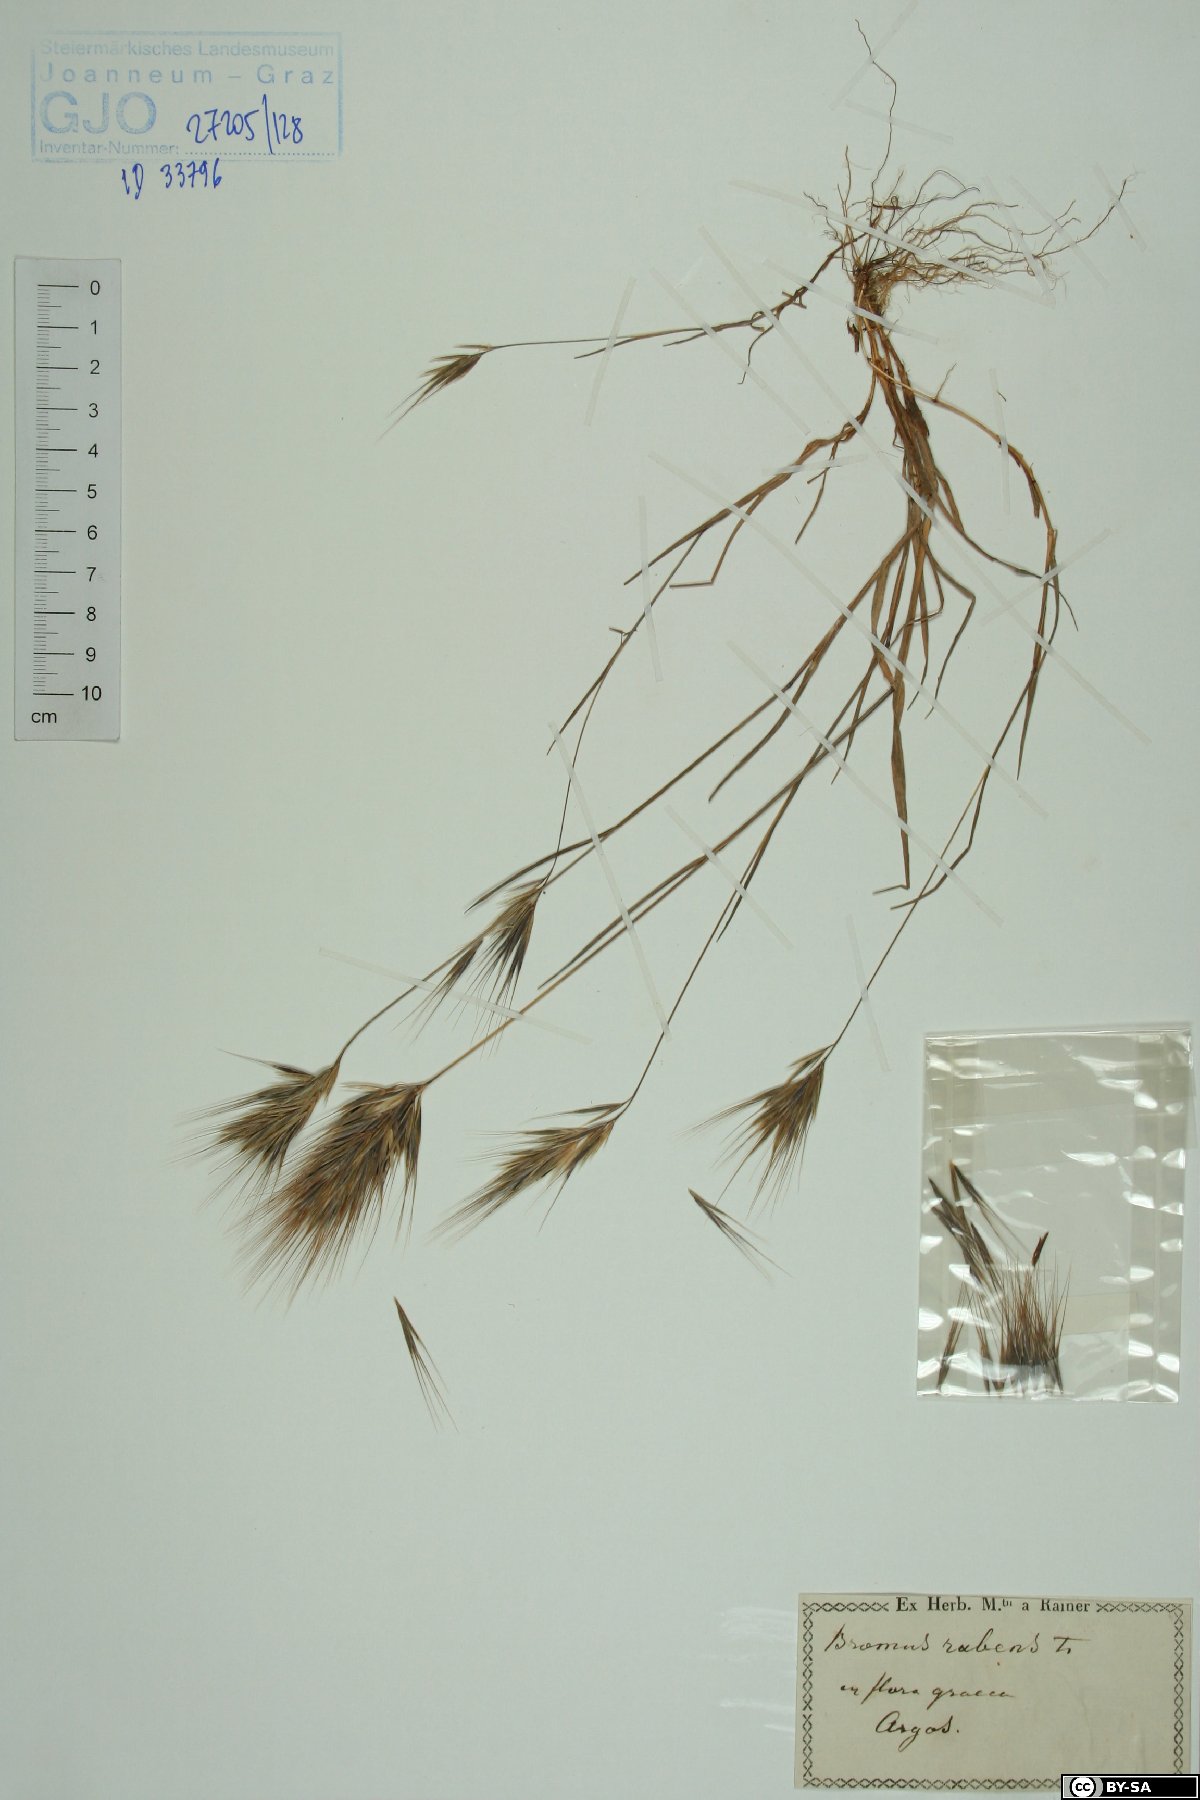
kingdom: Plantae
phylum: Tracheophyta
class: Liliopsida
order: Poales
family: Poaceae
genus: Bromus
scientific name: Bromus rubens
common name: Red brome
